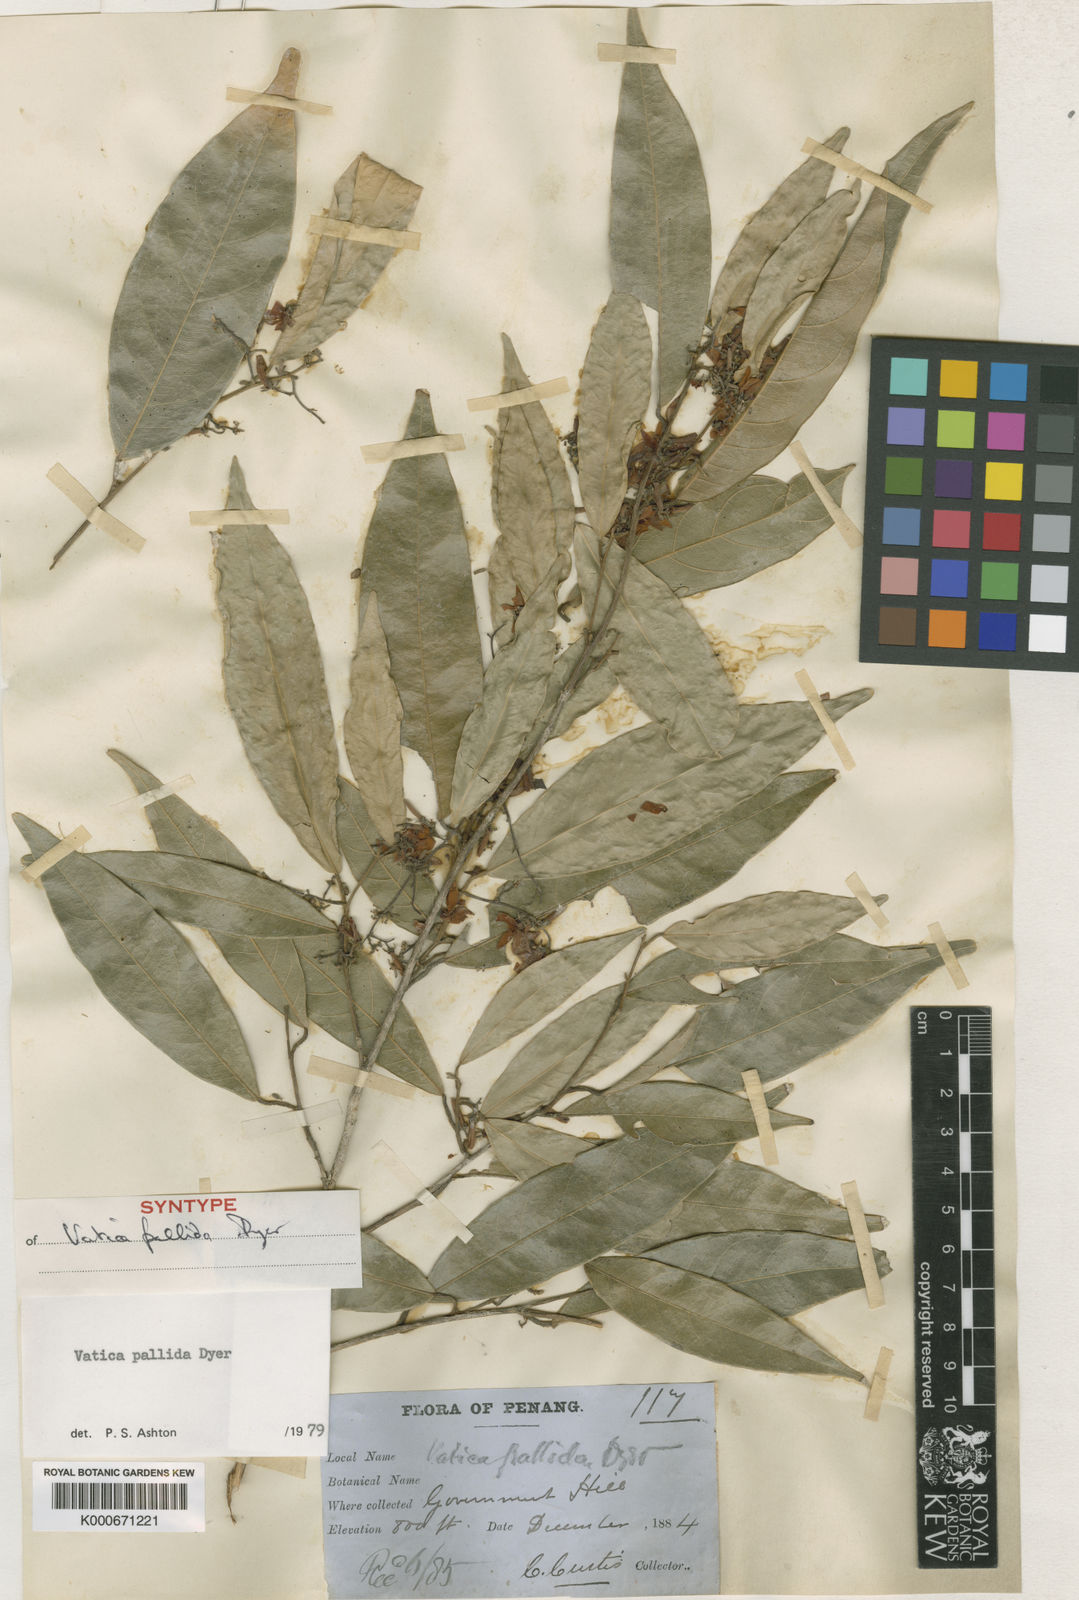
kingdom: Plantae
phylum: Tracheophyta
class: Magnoliopsida
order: Malvales
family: Dipterocarpaceae
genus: Vatica
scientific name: Vatica pallida
